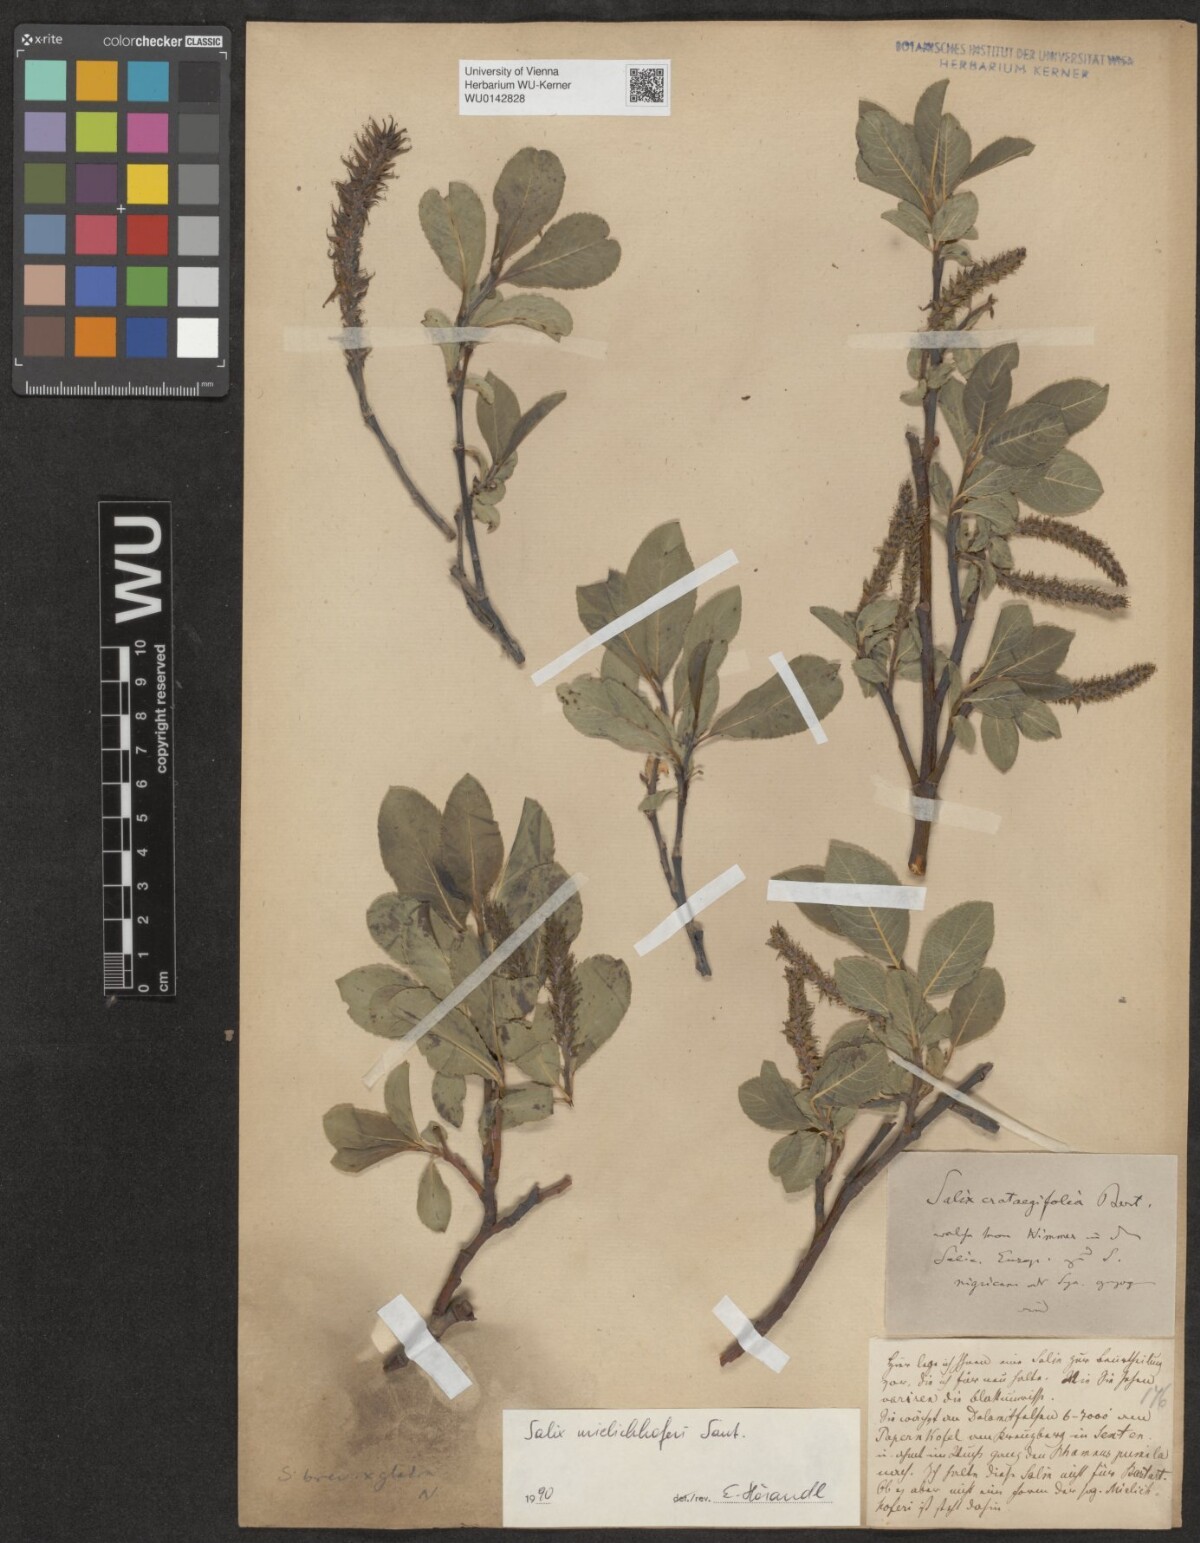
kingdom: Plantae
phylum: Tracheophyta
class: Magnoliopsida
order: Malpighiales
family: Salicaceae
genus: Salix
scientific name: Salix mielichhoferi
